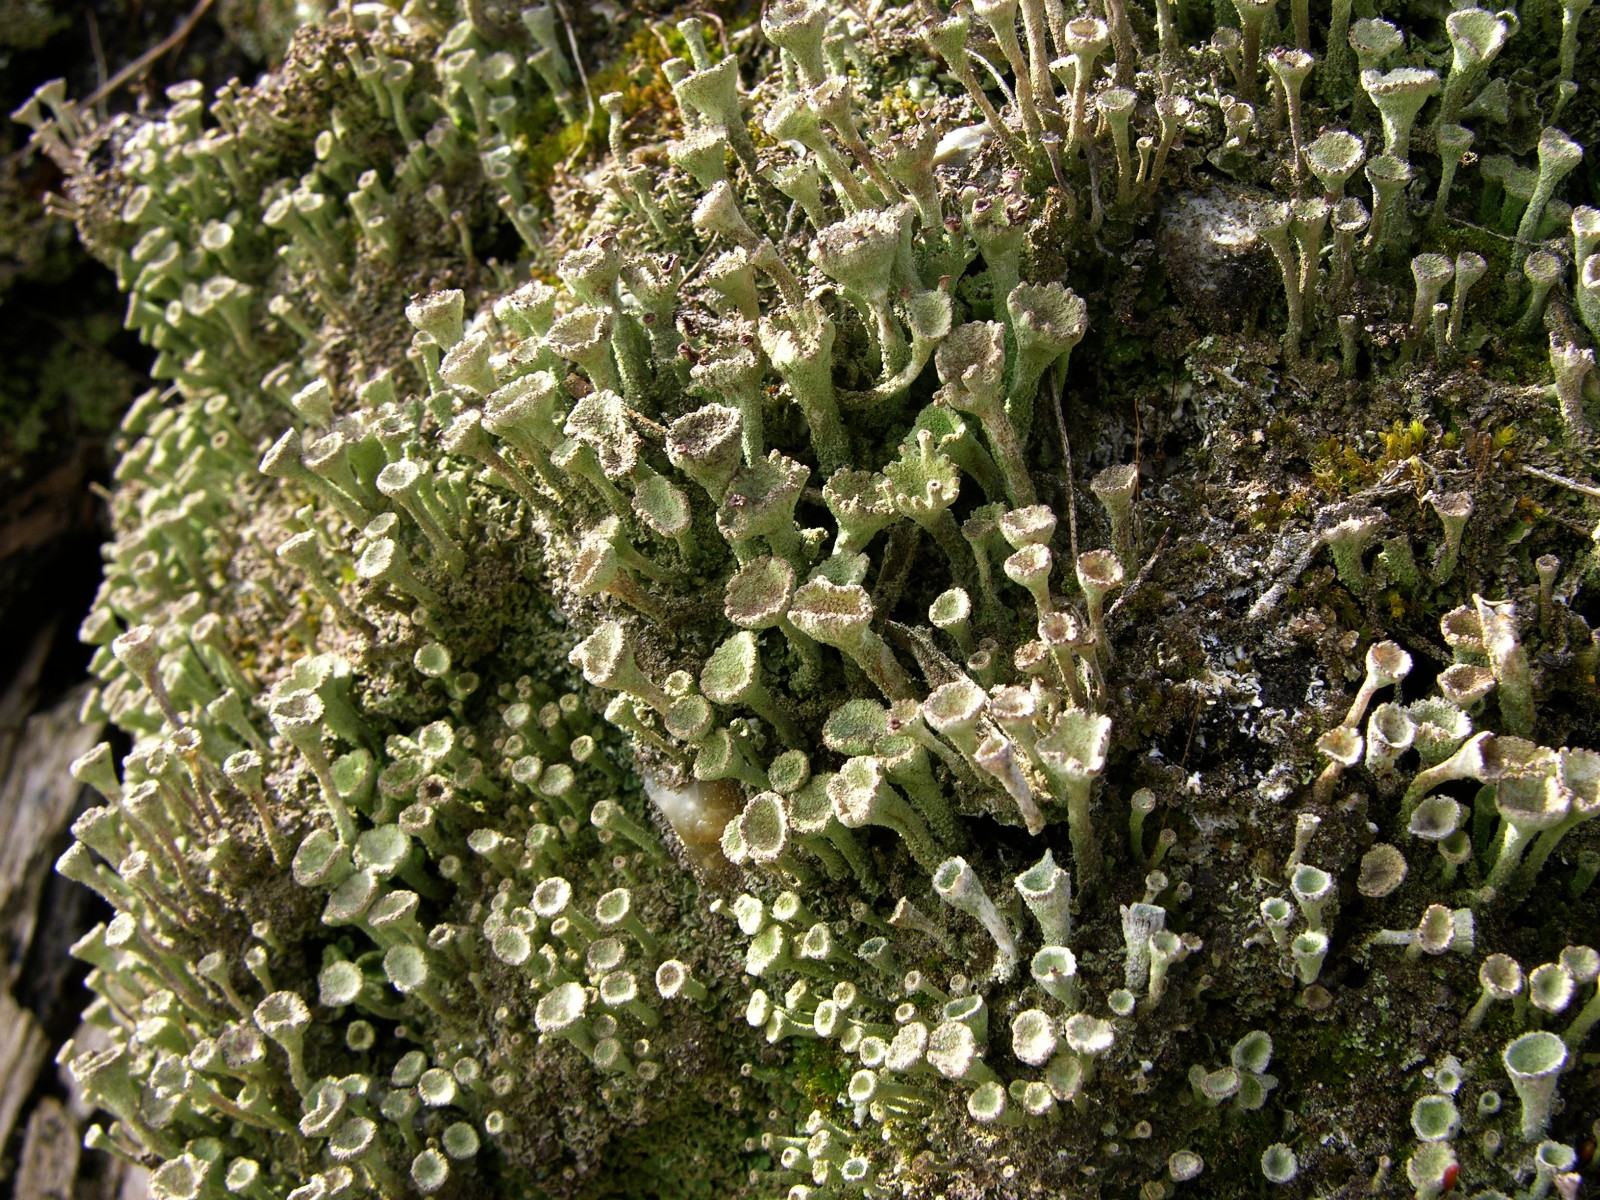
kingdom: Fungi
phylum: Ascomycota
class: Lecanoromycetes
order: Lecanorales
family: Cladoniaceae
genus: Cladonia
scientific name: Cladonia
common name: brungrøn bægerlav
